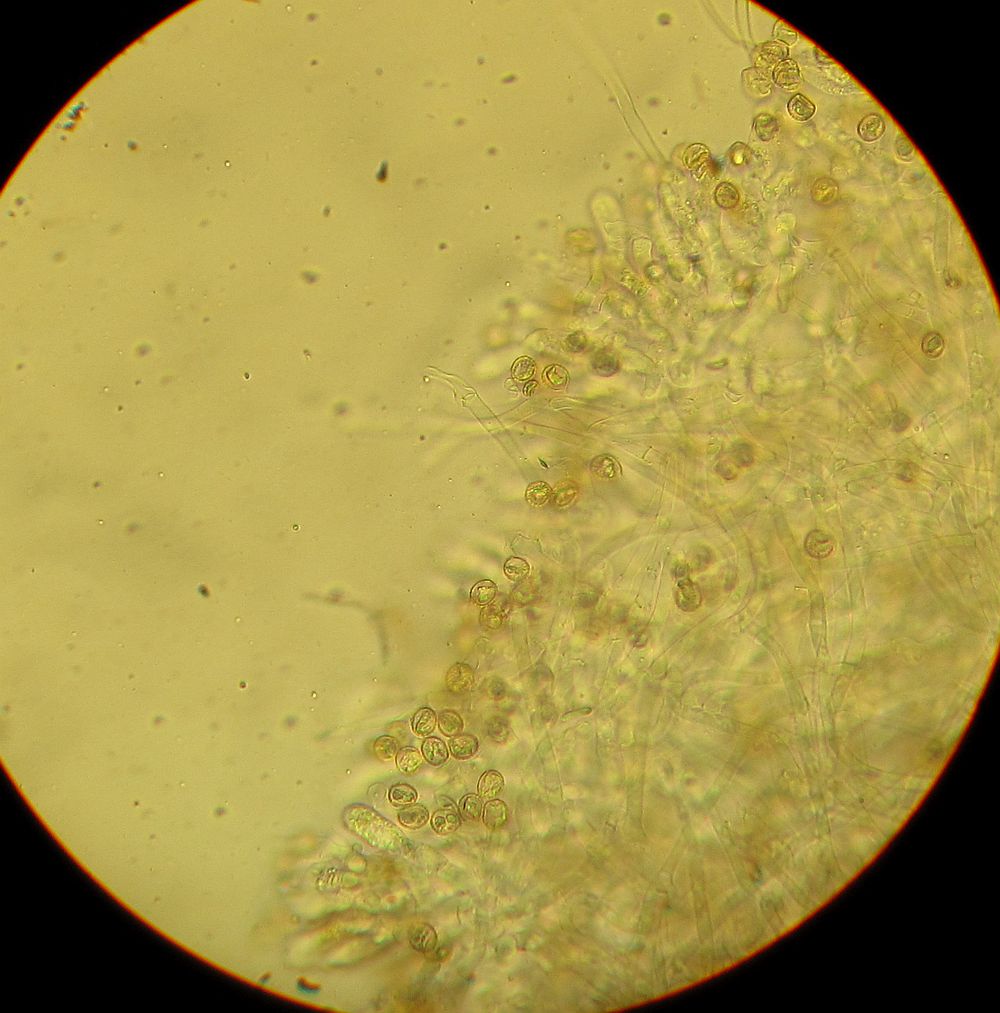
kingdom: Fungi
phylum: Basidiomycota
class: Agaricomycetes
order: Agaricales
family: Crepidotaceae
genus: Crepidotus
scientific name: Crepidotus cesatii
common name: almindelig muslingesvamp
